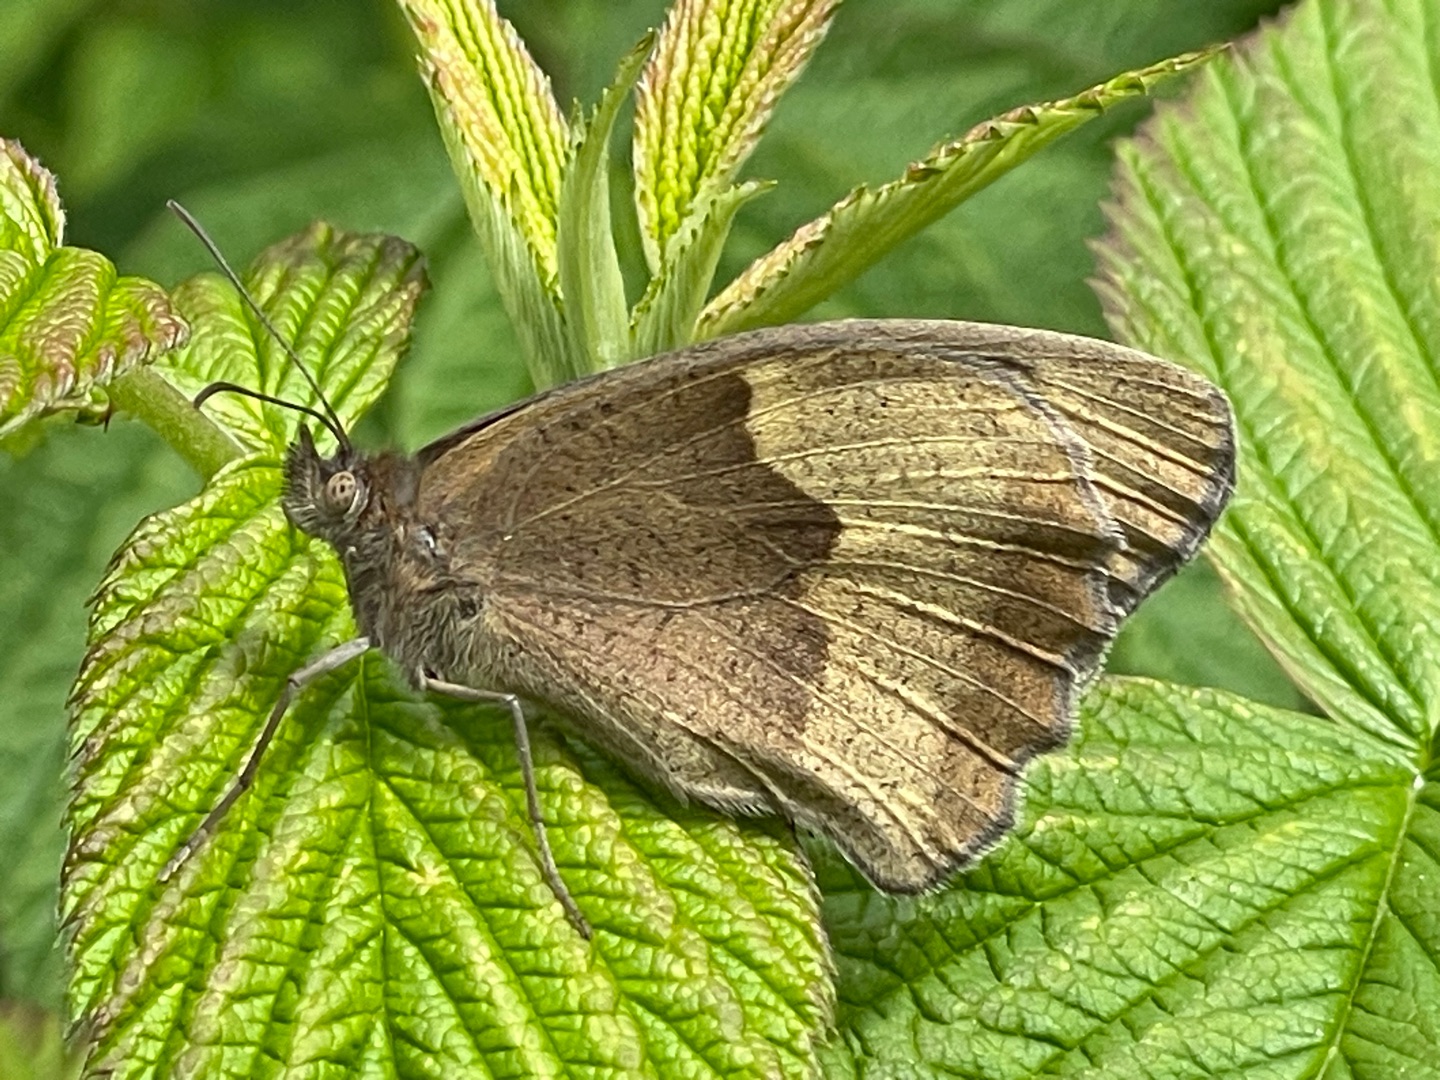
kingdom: Animalia
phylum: Arthropoda
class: Insecta
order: Lepidoptera
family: Nymphalidae
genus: Maniola
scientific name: Maniola jurtina
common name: Græsrandøje
